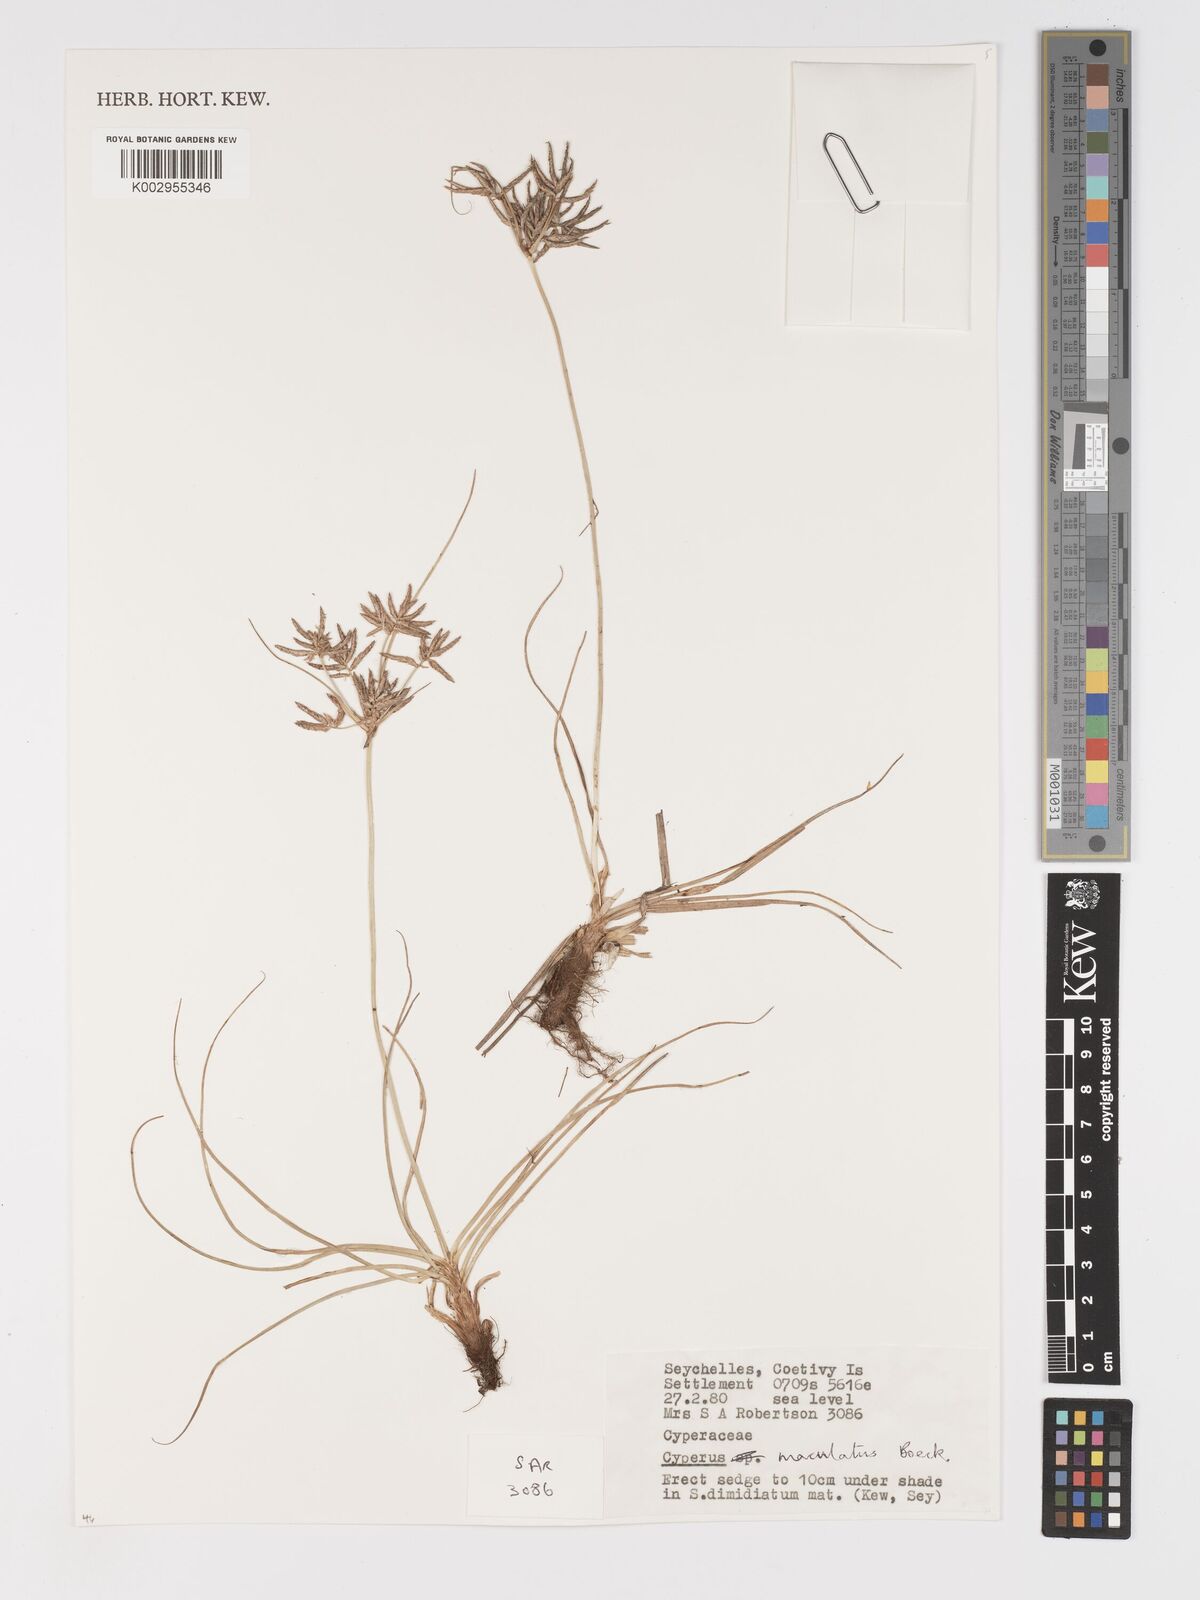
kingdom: Plantae
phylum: Tracheophyta
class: Liliopsida
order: Poales
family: Cyperaceae
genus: Cyperus
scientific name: Cyperus maculatus
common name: Maculated sedge
